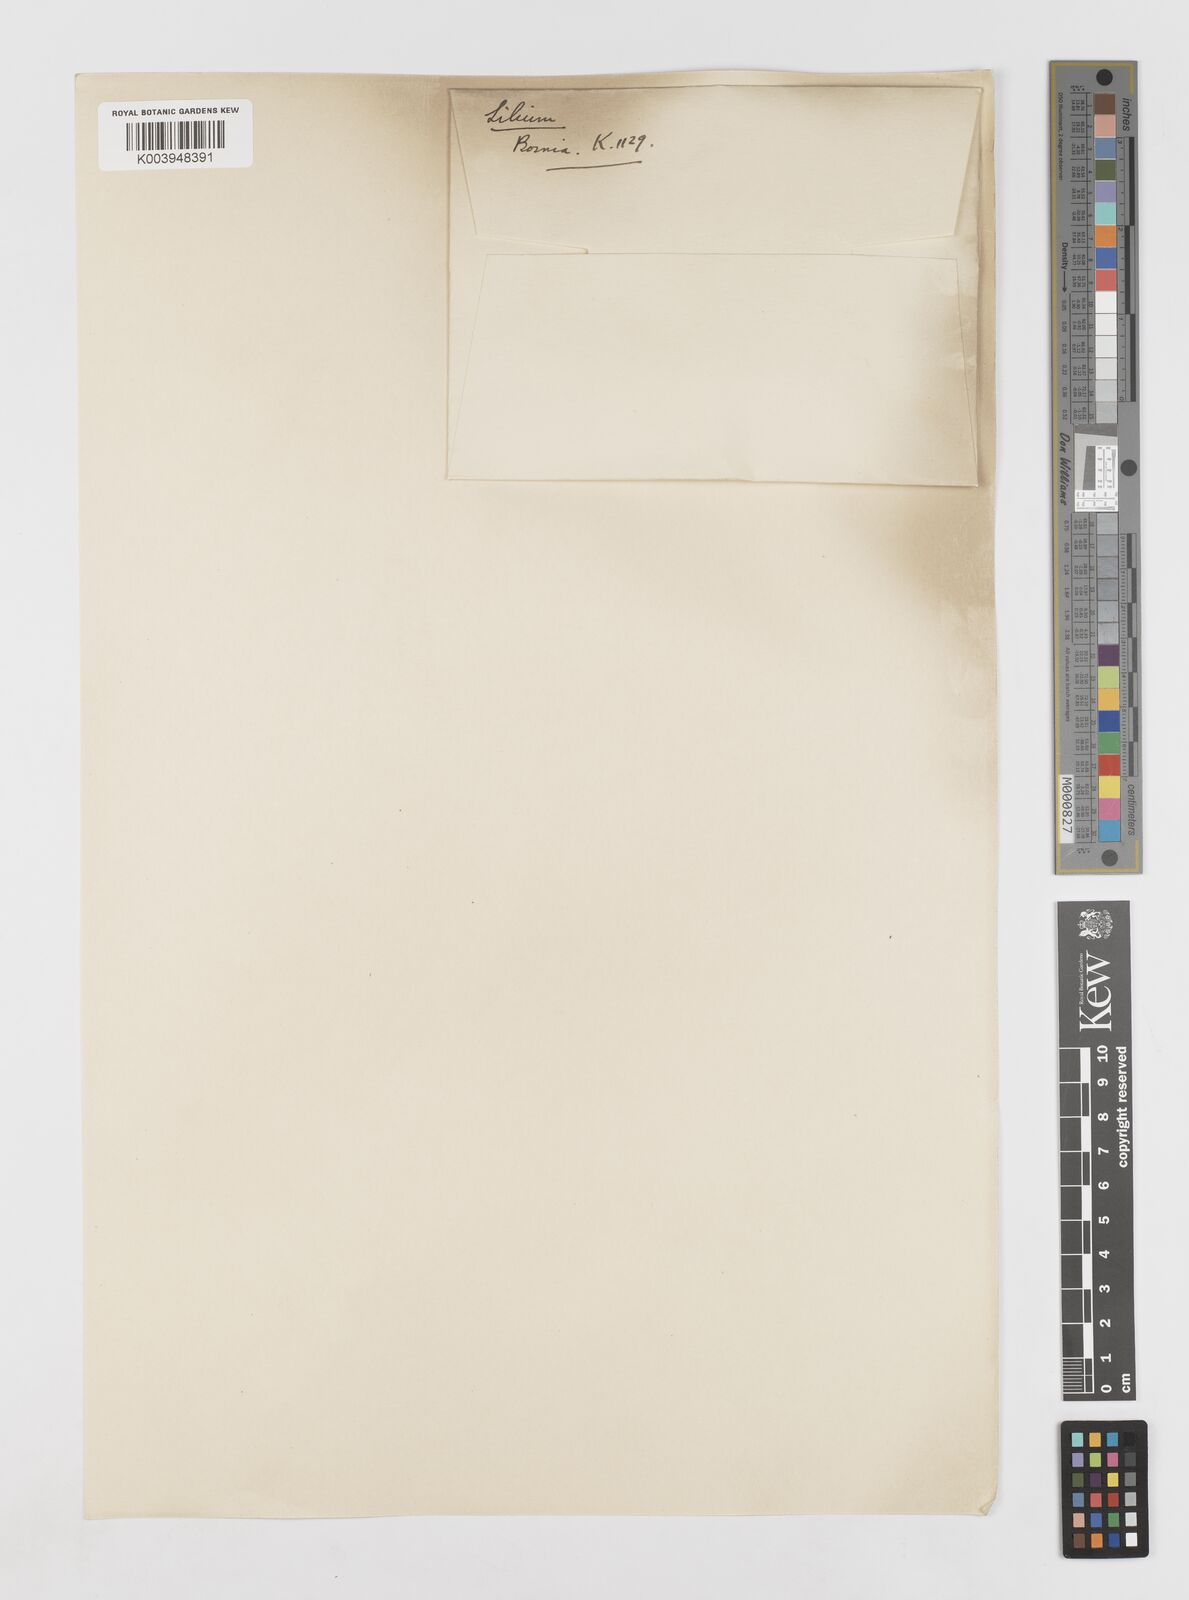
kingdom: Plantae
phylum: Tracheophyta
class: Liliopsida
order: Liliales
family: Liliaceae
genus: Lilium
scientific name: Lilium
